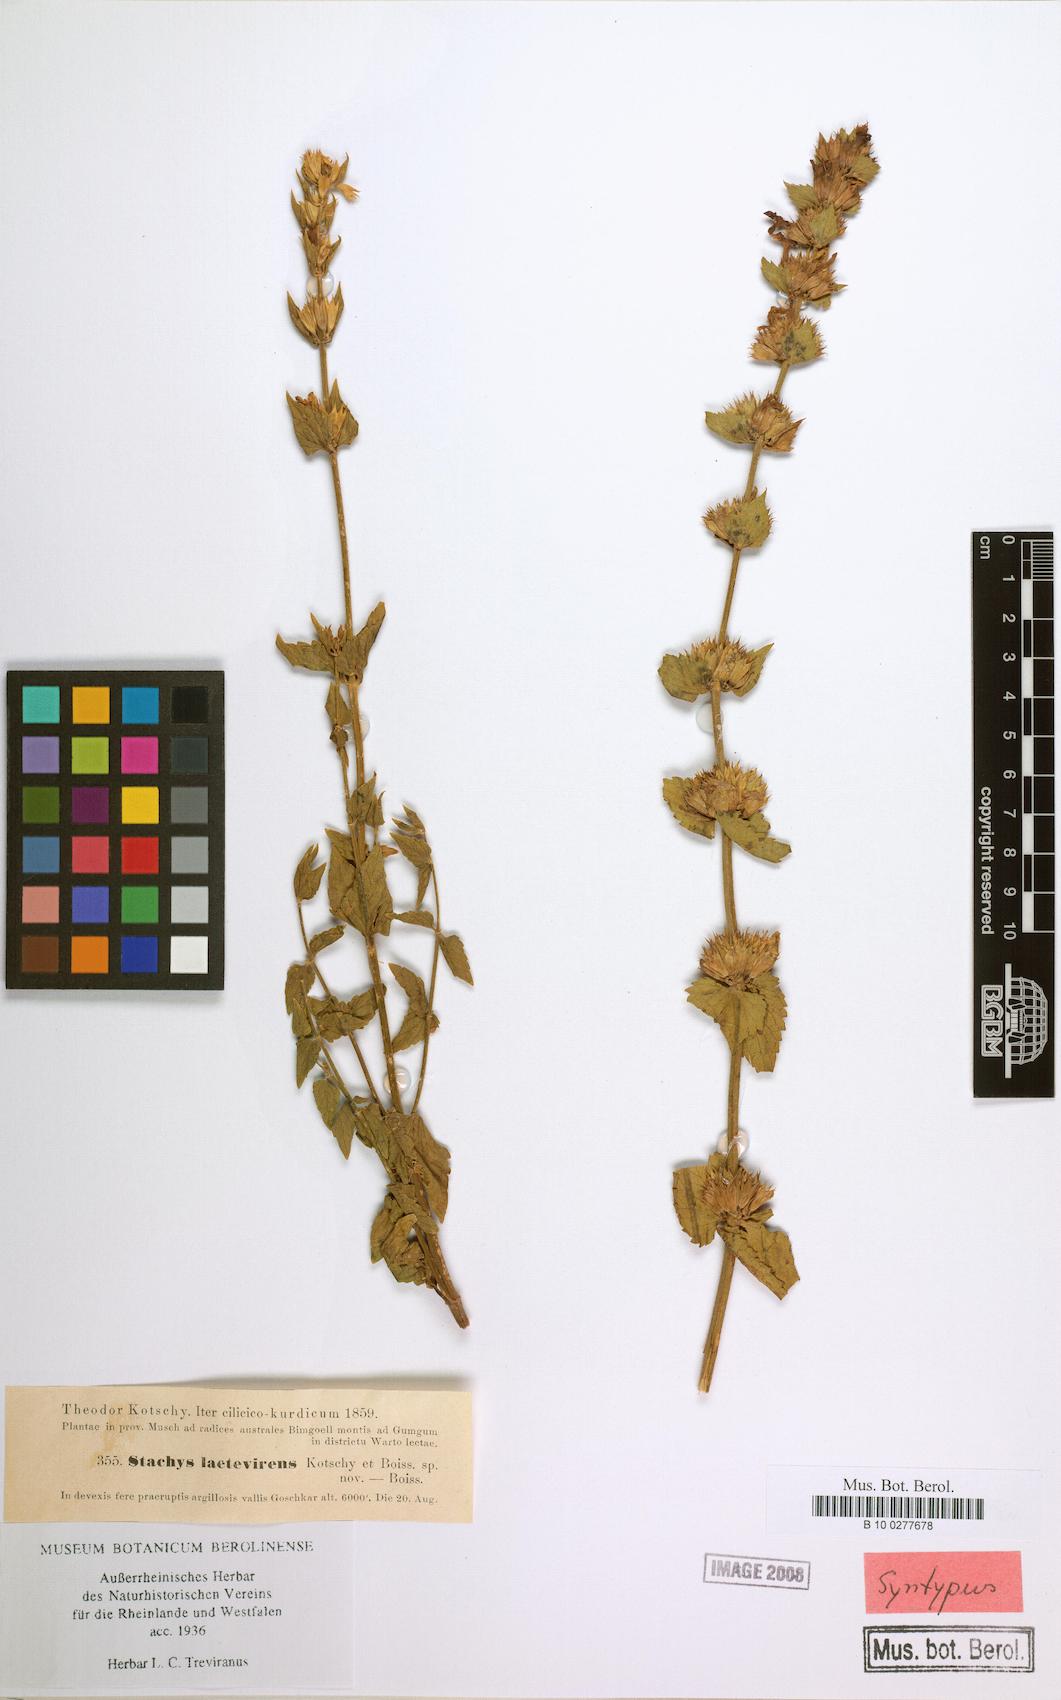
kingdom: Plantae
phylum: Tracheophyta
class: Magnoliopsida
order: Lamiales
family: Lamiaceae
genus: Stachys
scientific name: Stachys viscosa
